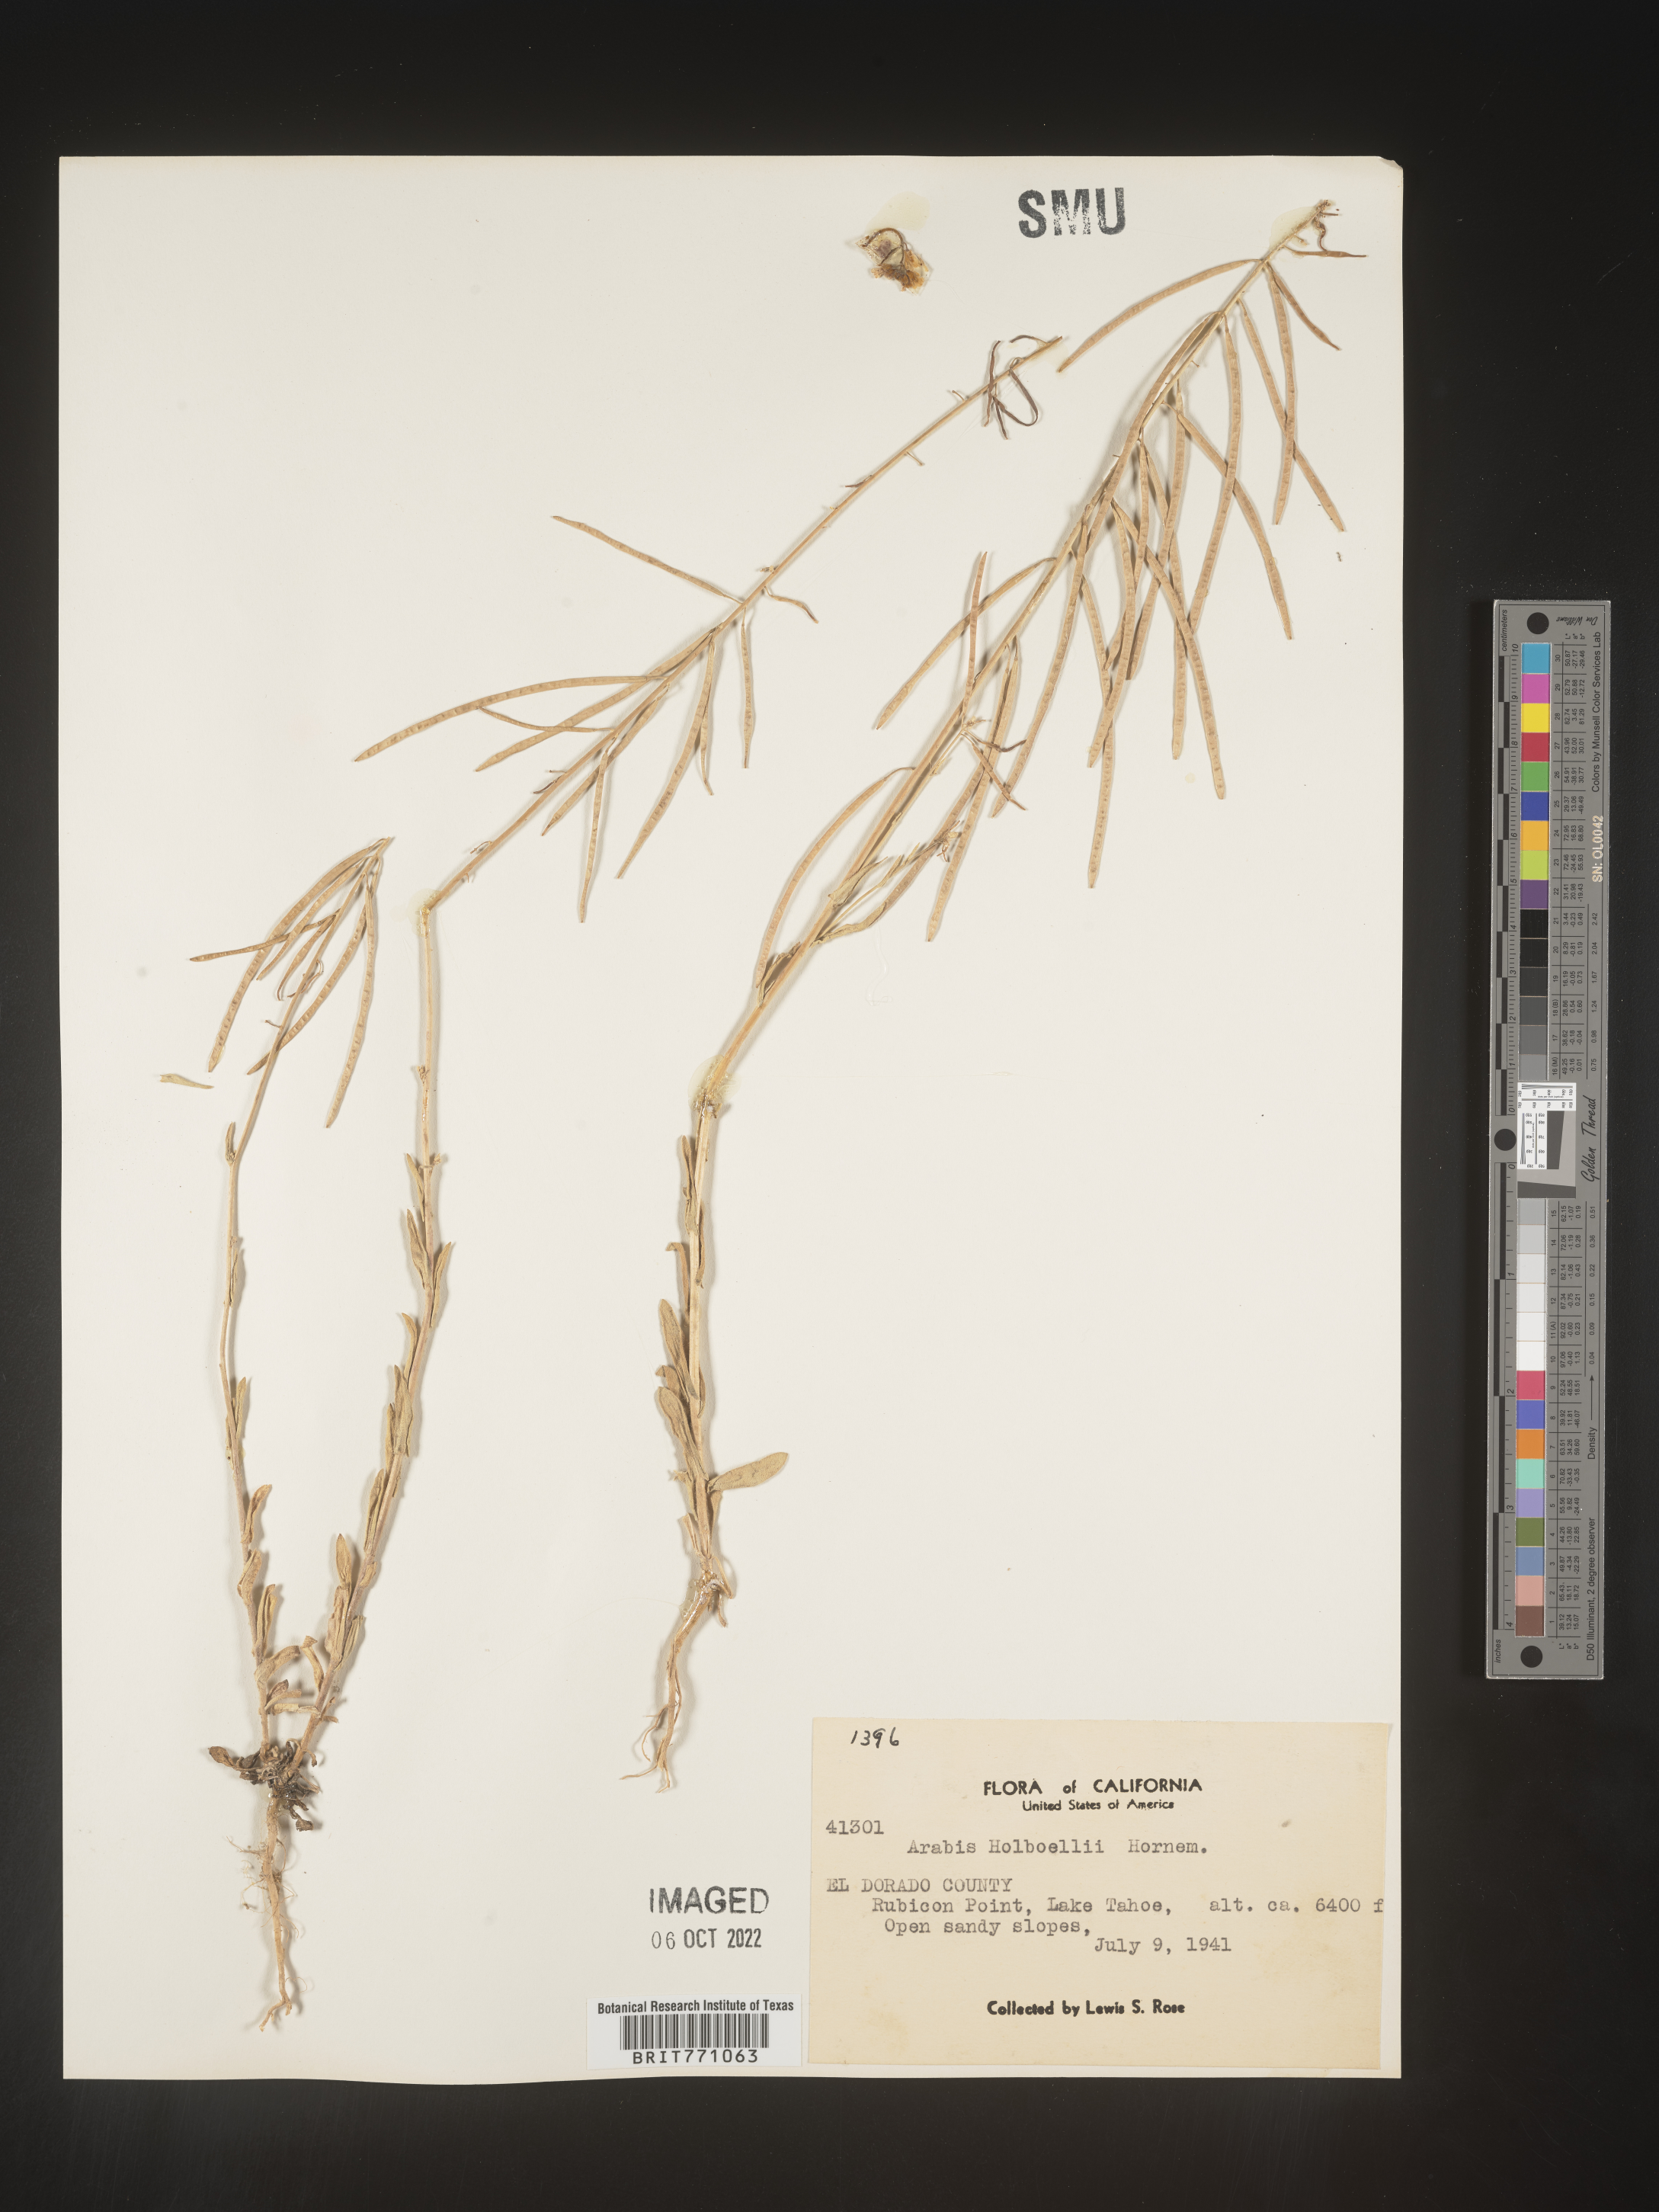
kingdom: Plantae
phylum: Tracheophyta
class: Magnoliopsida
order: Brassicales
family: Brassicaceae
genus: Boechera
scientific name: Boechera holboellii
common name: Holboell's rockcress
